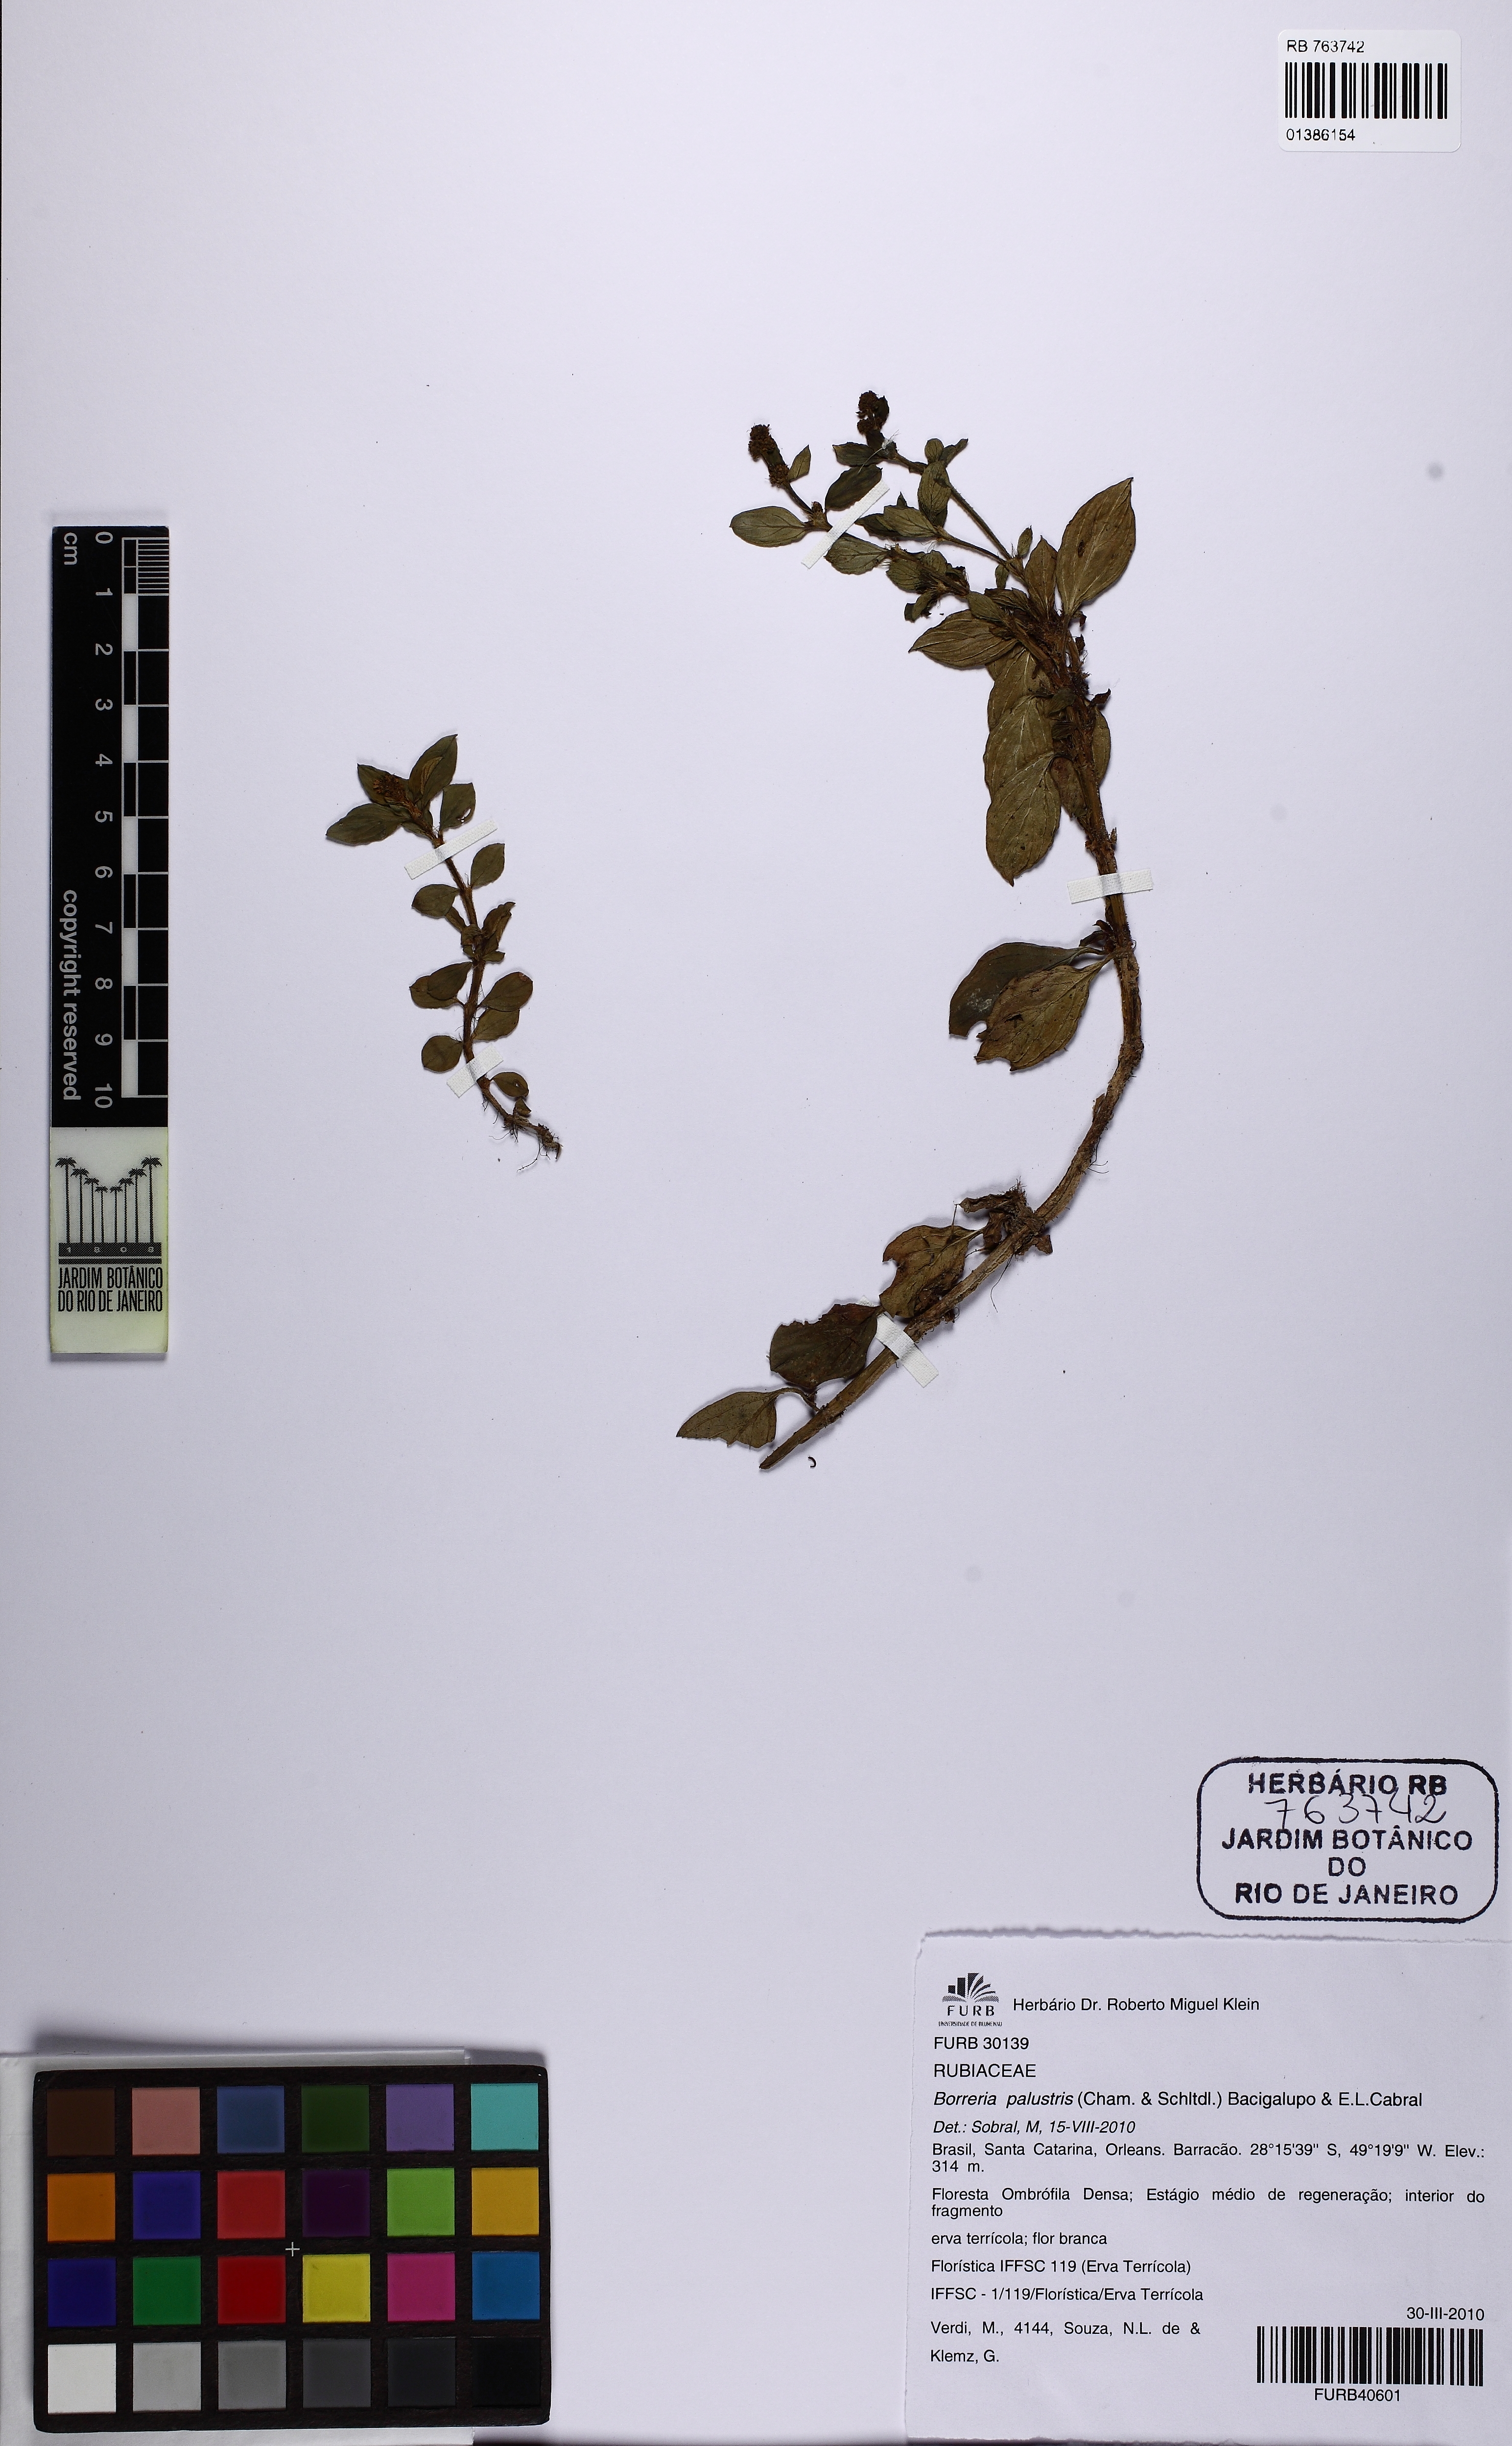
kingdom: Plantae
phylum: Tracheophyta
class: Magnoliopsida
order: Gentianales
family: Rubiaceae
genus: Galianthe
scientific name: Galianthe palustris
